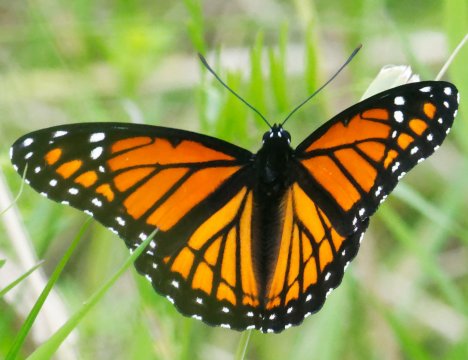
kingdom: Animalia
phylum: Arthropoda
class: Insecta
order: Lepidoptera
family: Nymphalidae
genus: Limenitis
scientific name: Limenitis archippus
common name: Viceroy
